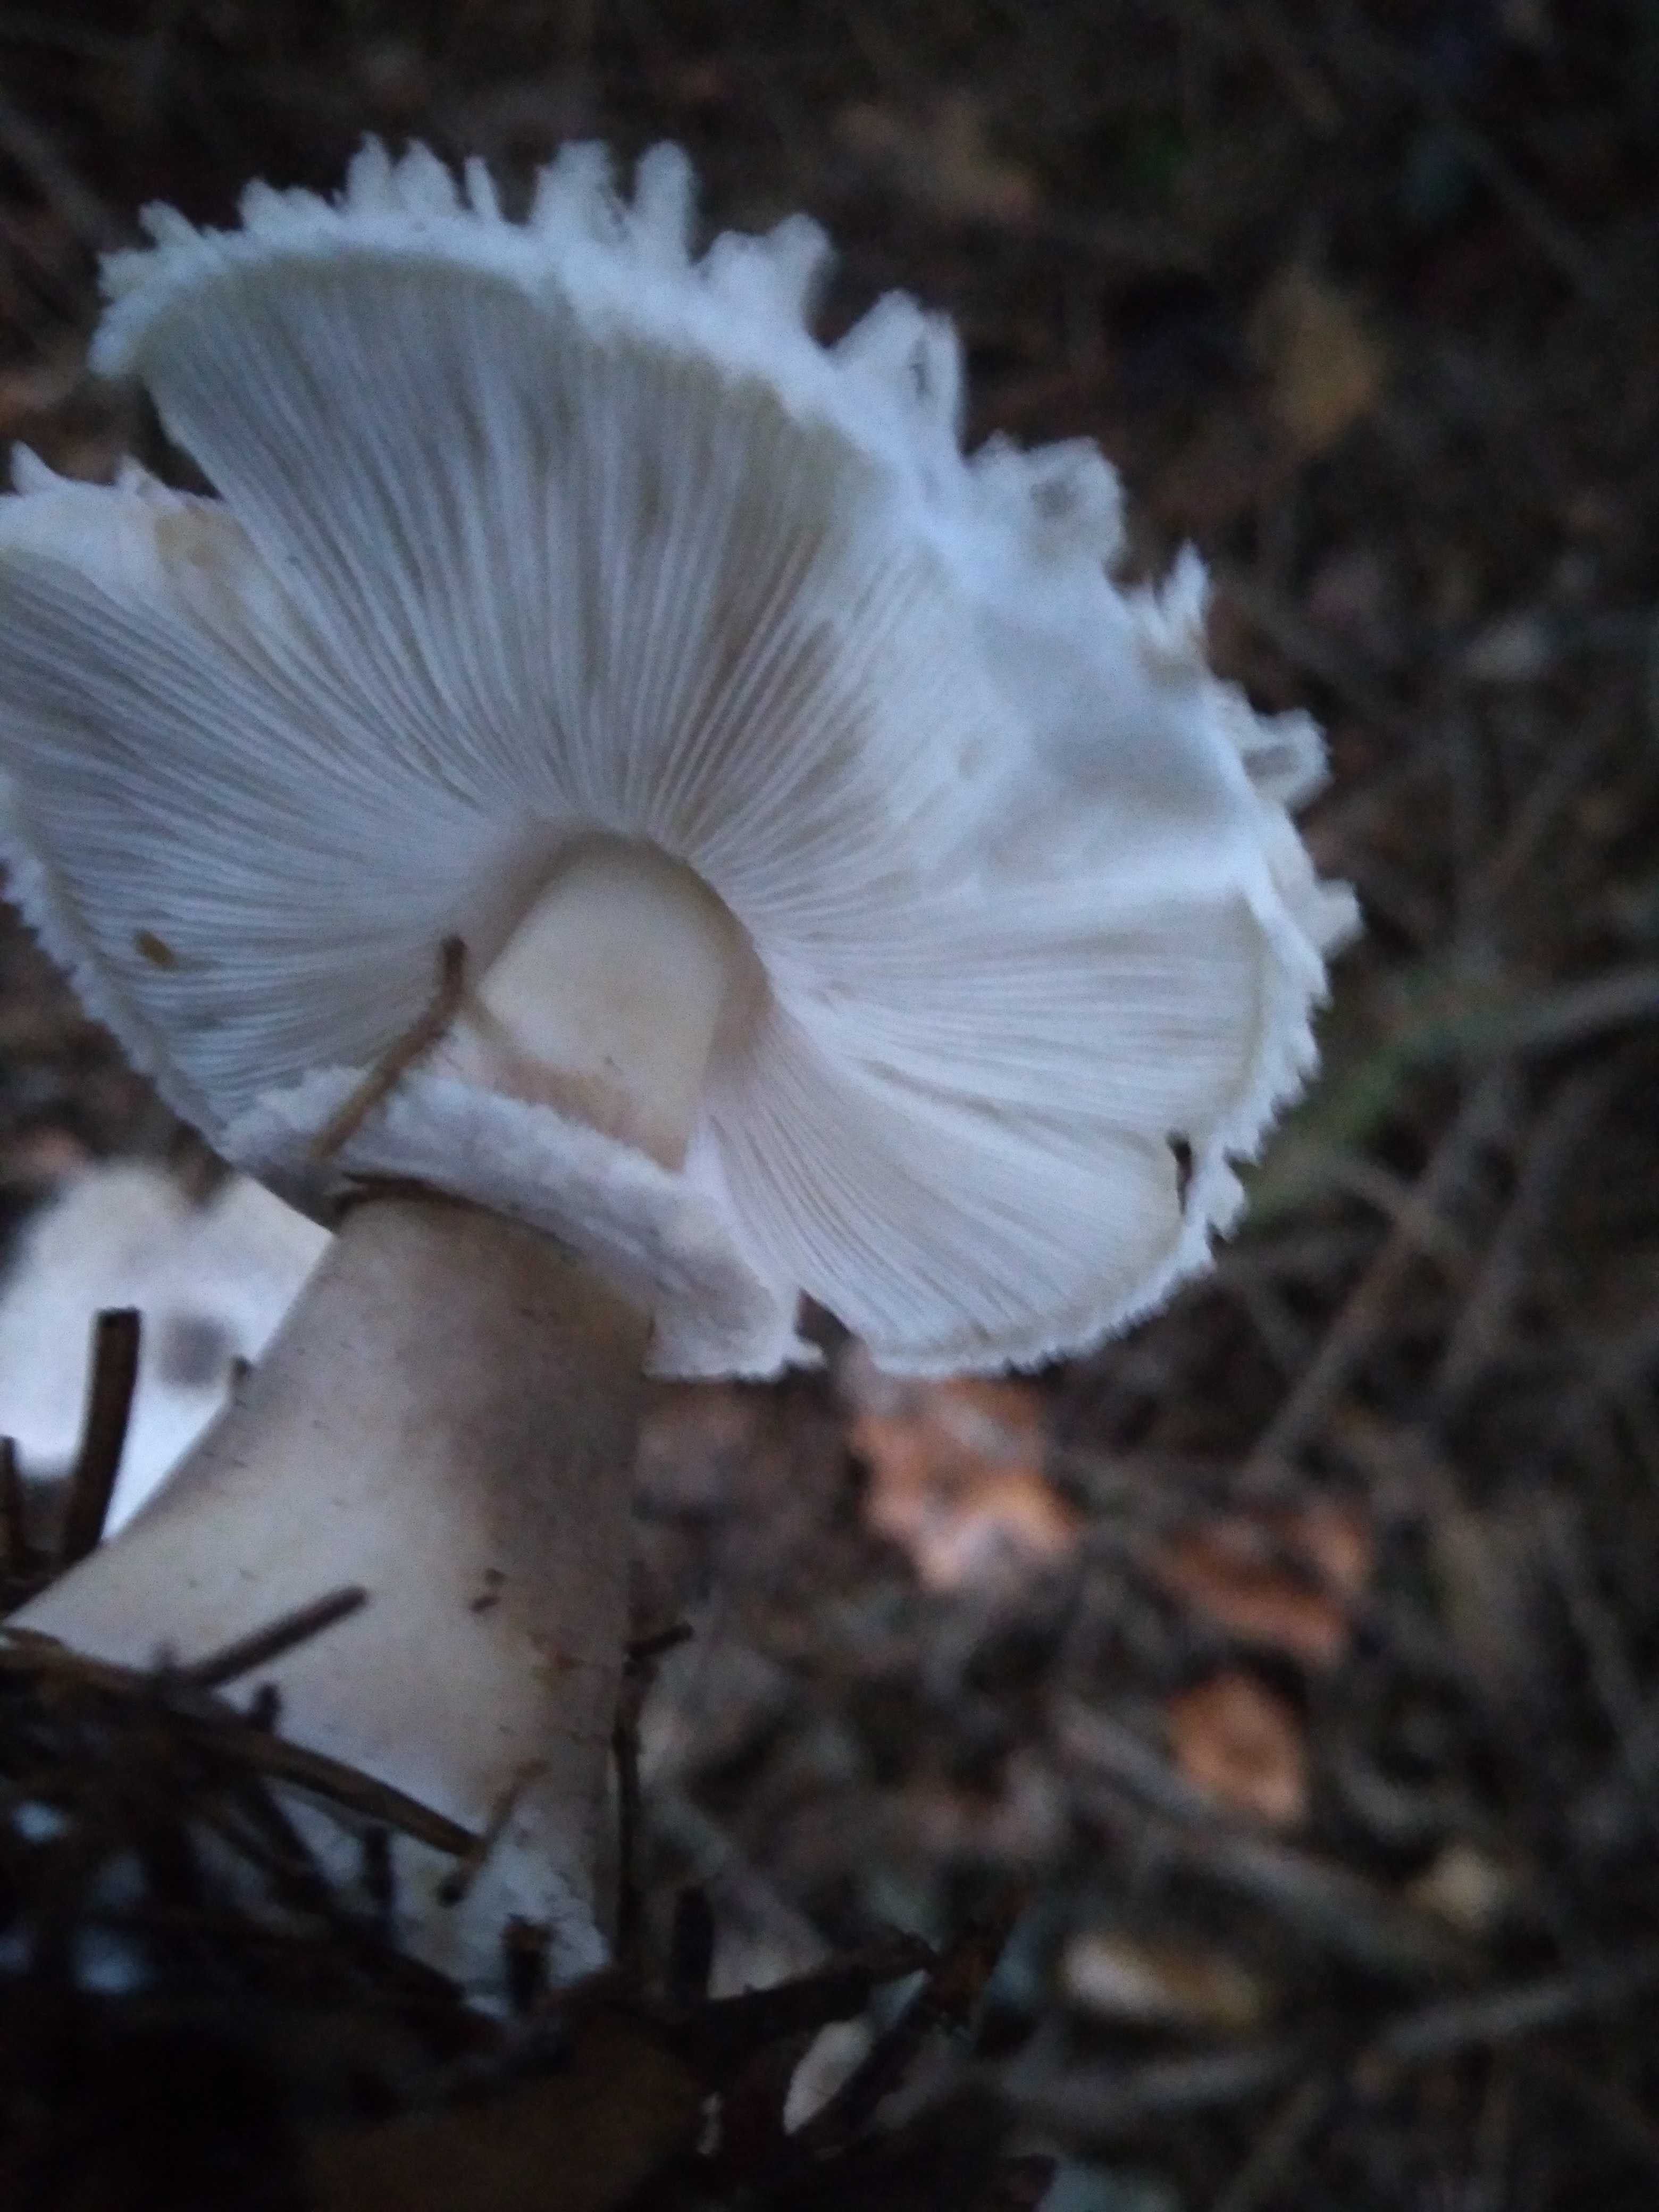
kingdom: Fungi
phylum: Basidiomycota
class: Agaricomycetes
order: Agaricales
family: Agaricaceae
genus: Leucoagaricus
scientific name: Leucoagaricus nympharum
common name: gran-silkehat
